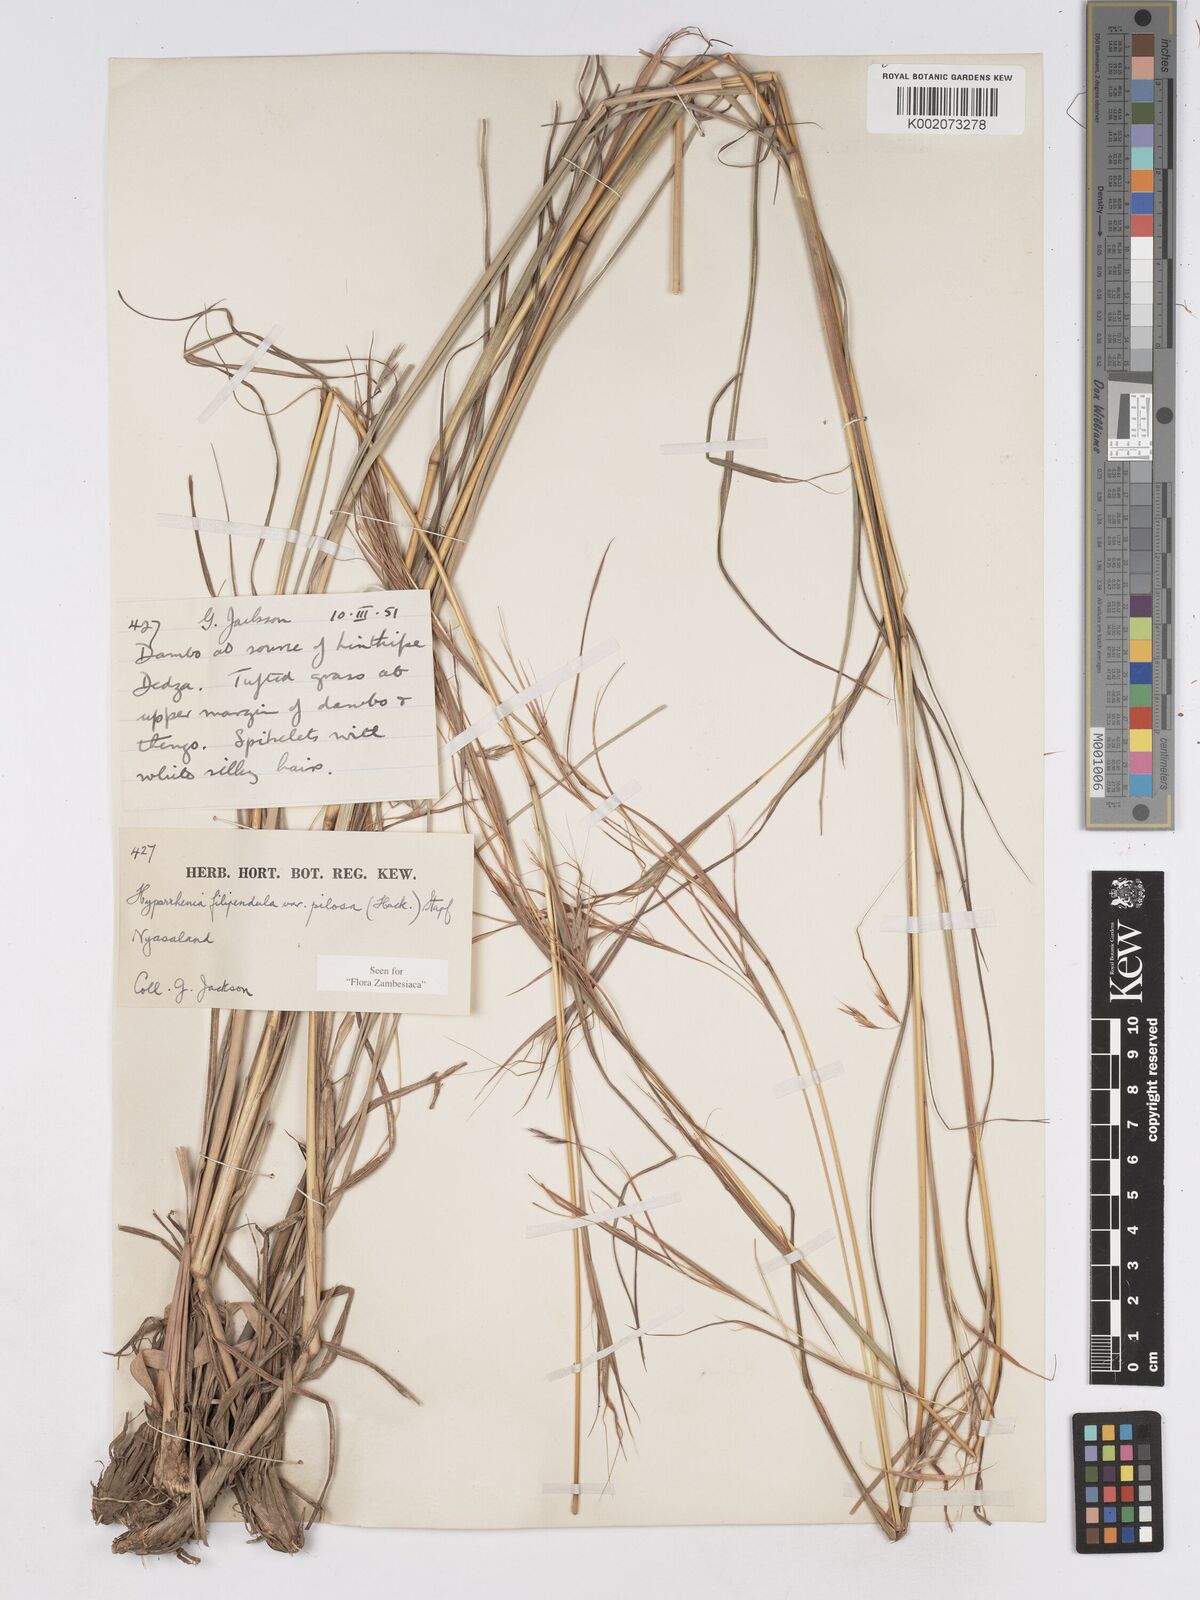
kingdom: Plantae
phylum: Tracheophyta
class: Liliopsida
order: Poales
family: Poaceae
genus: Hyparrhenia
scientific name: Hyparrhenia filipendula
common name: Tambookie grass
